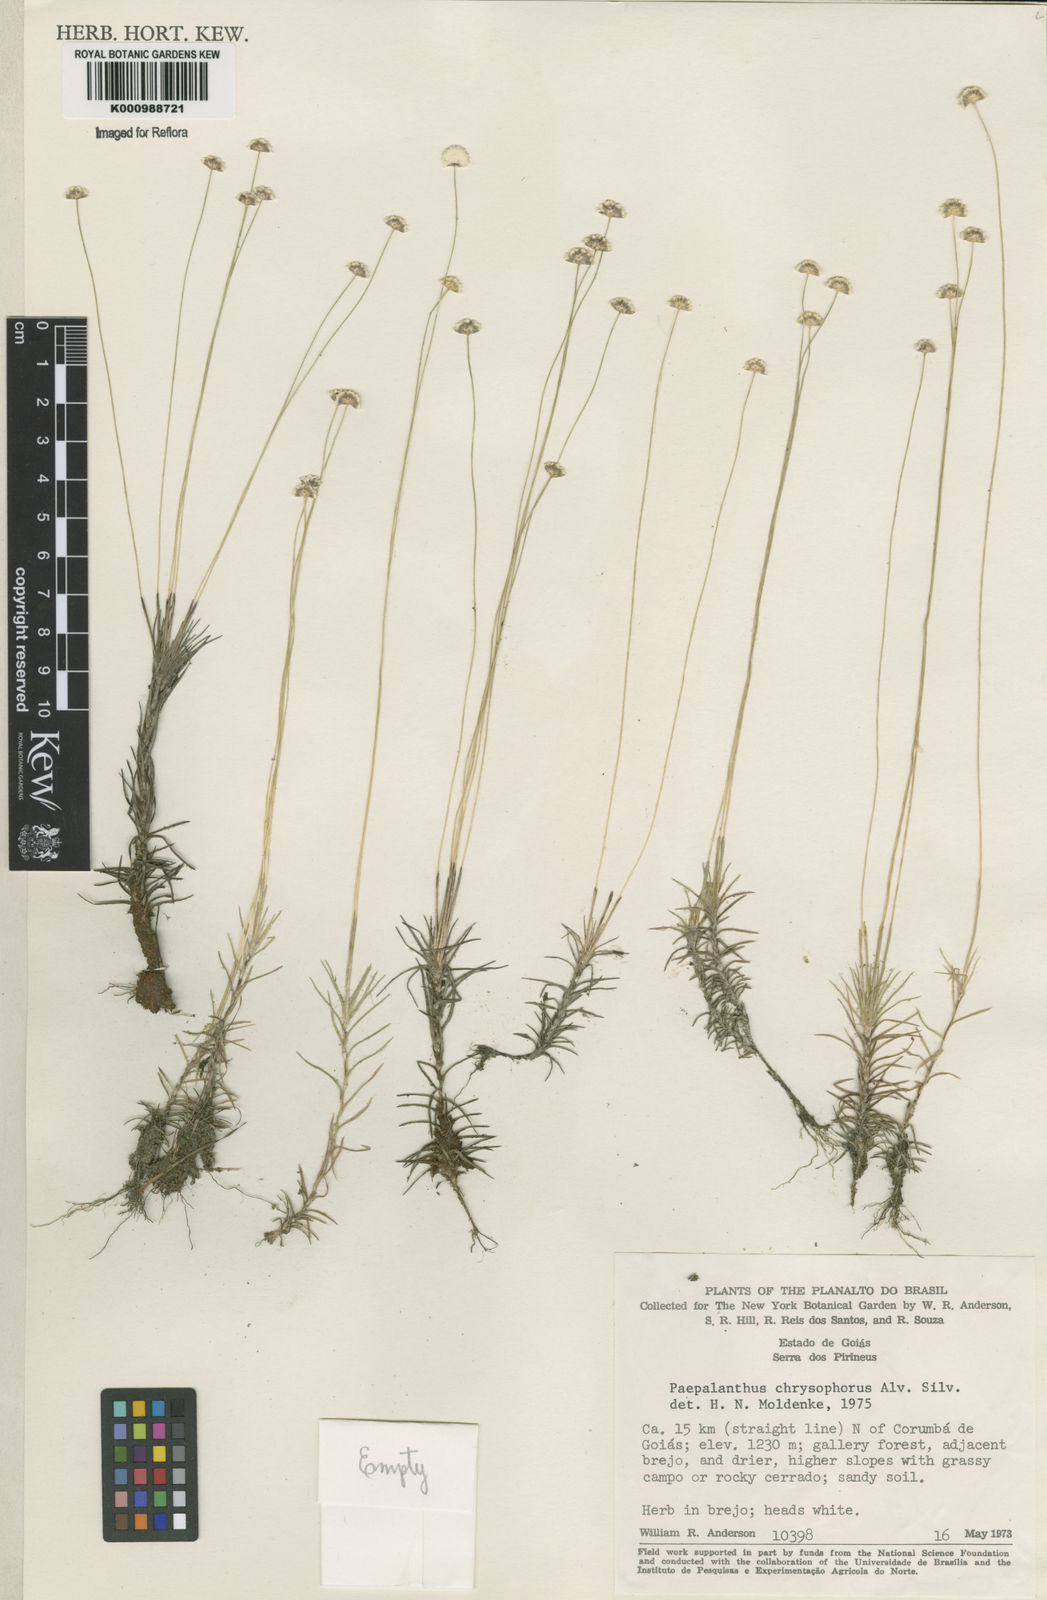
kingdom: Plantae
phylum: Tracheophyta
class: Liliopsida
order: Poales
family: Eriocaulaceae
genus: Paepalanthus
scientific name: Paepalanthus chrysophorus
